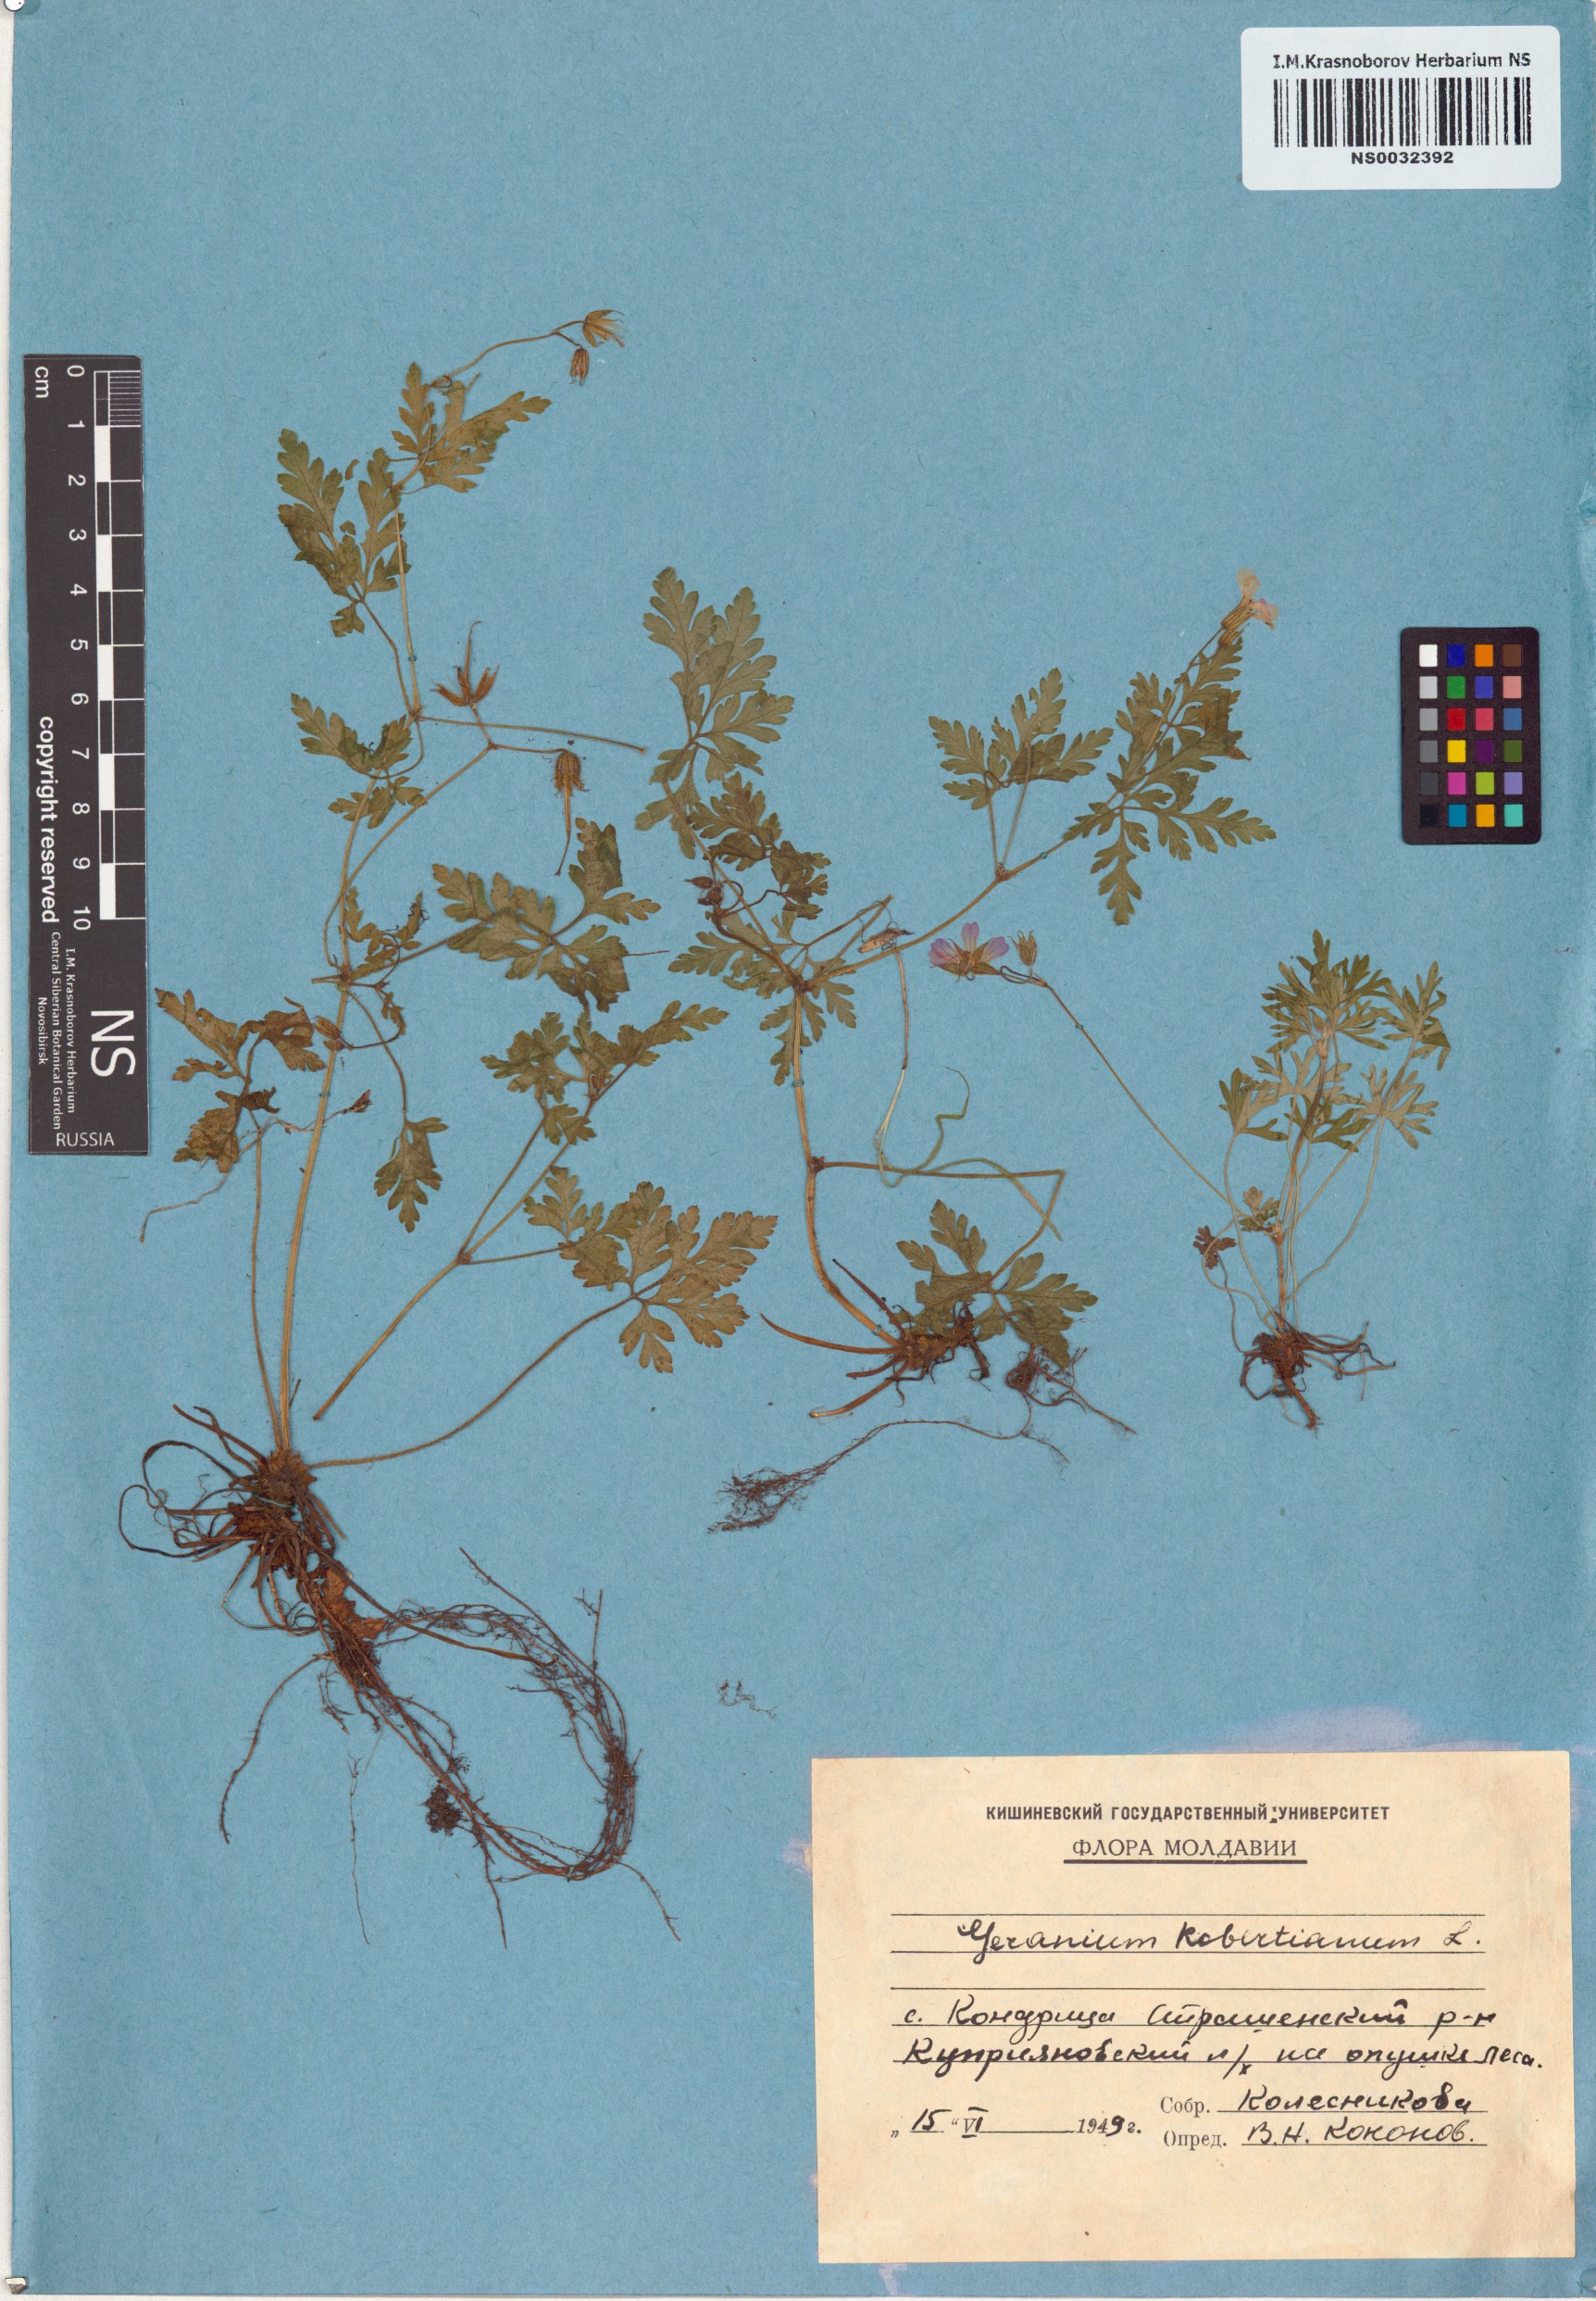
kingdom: Plantae
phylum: Tracheophyta
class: Magnoliopsida
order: Geraniales
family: Geraniaceae
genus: Geranium
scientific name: Geranium robertianum
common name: Herb-robert
